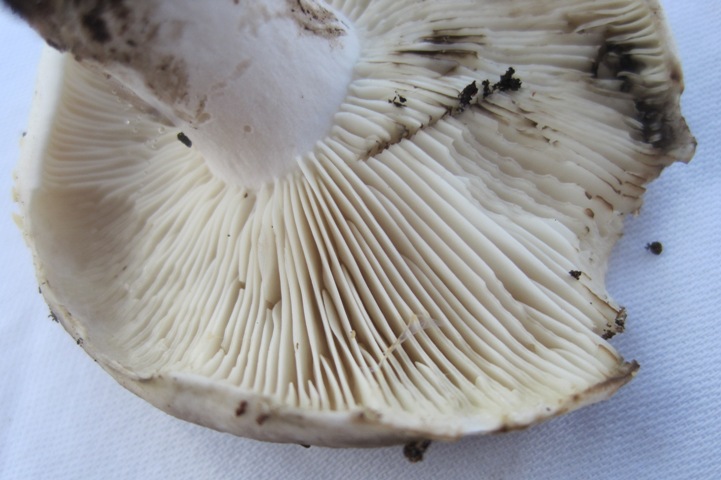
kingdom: Fungi
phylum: Basidiomycota
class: Agaricomycetes
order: Russulales
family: Russulaceae
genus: Russula
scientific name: Russula densifolia
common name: tætbladet skørhat
